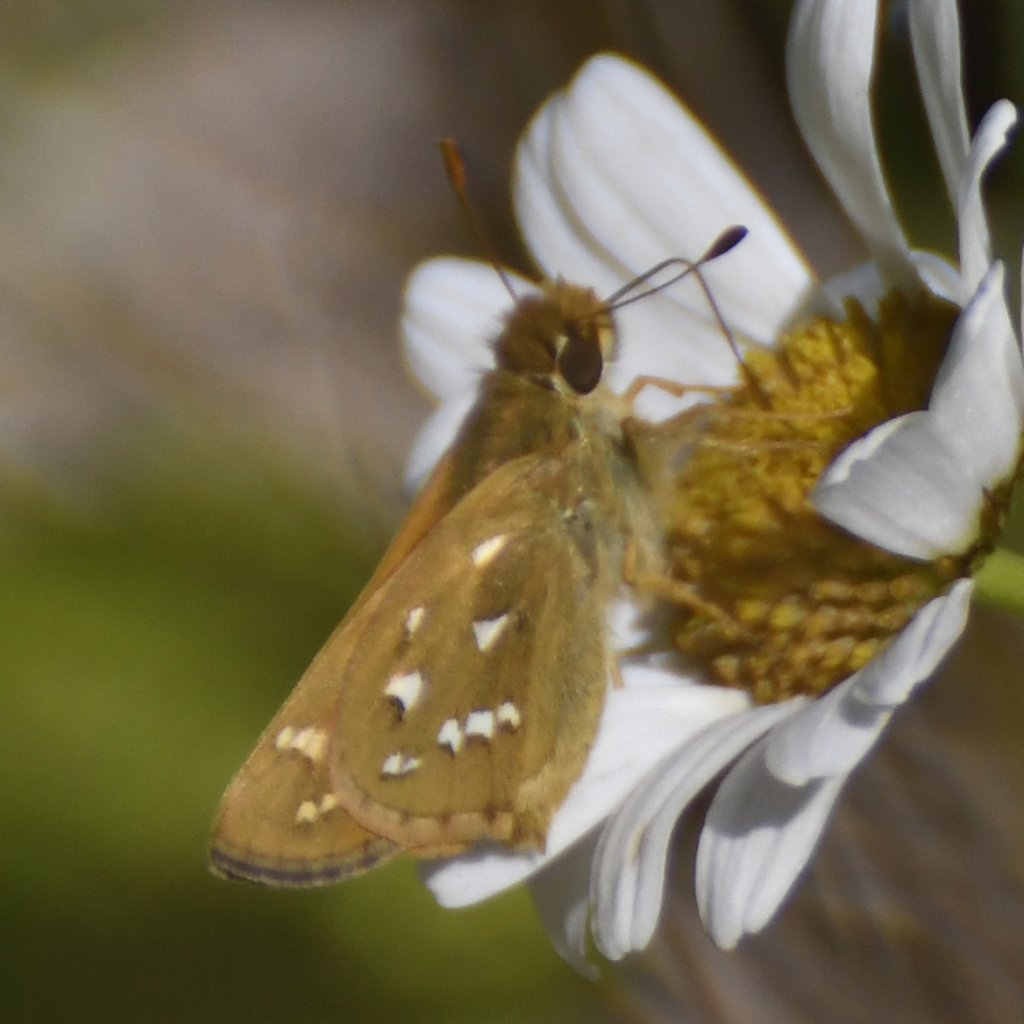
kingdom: Animalia
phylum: Arthropoda
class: Insecta
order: Lepidoptera
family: Hesperiidae
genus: Hesperia
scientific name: Hesperia comma
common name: Common Branded Skipper
